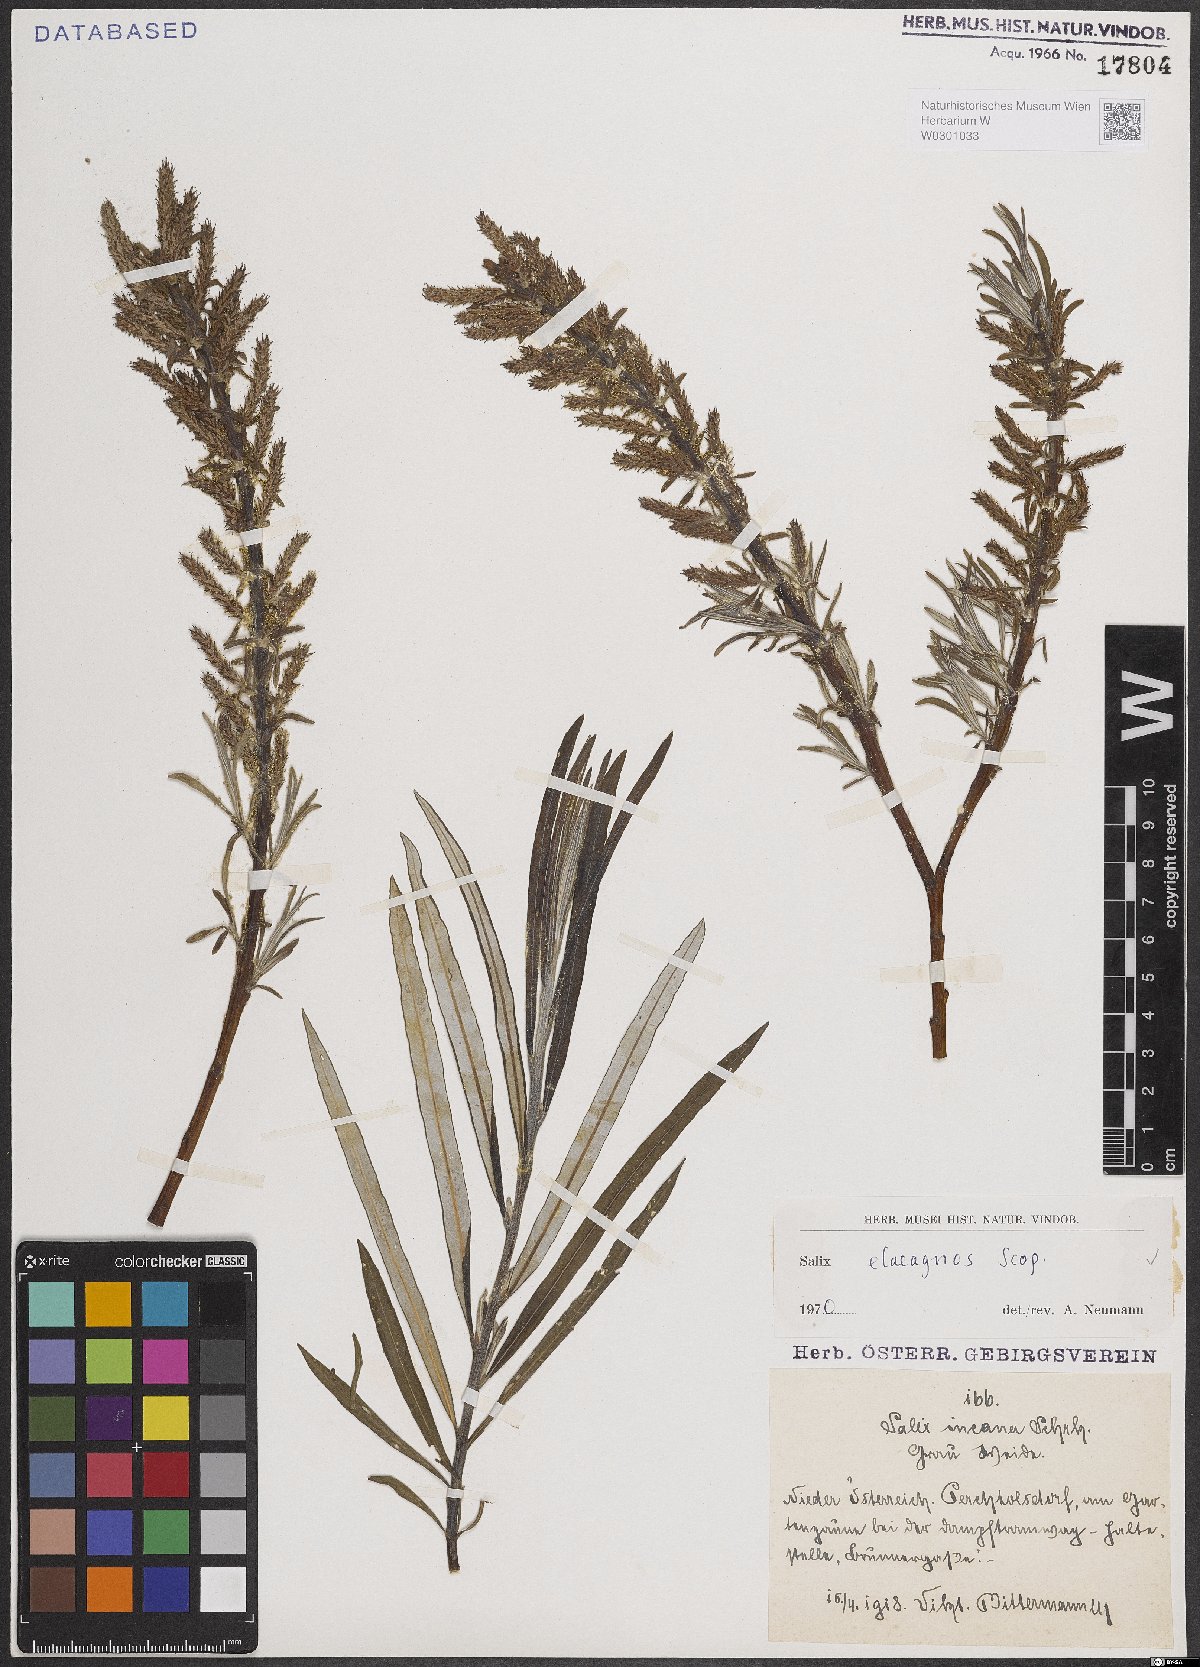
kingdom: Plantae
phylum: Tracheophyta
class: Magnoliopsida
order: Malpighiales
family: Salicaceae
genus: Salix
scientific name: Salix eleagnos
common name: Elaeagnus willow
